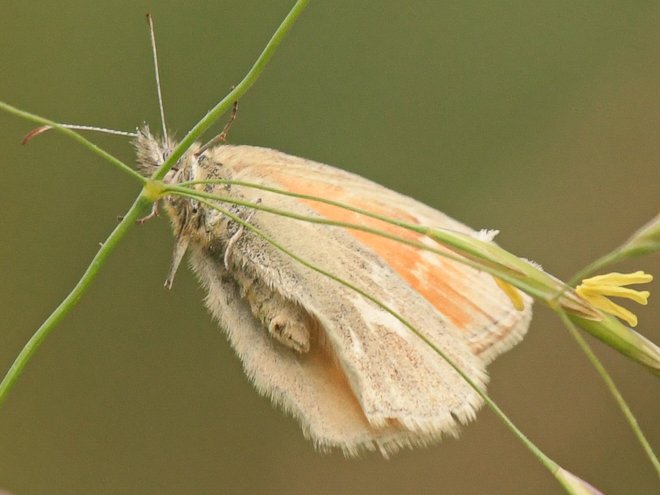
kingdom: Animalia
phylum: Arthropoda
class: Insecta
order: Lepidoptera
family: Nymphalidae
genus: Coenonympha
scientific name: Coenonympha tullia
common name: Large Heath
